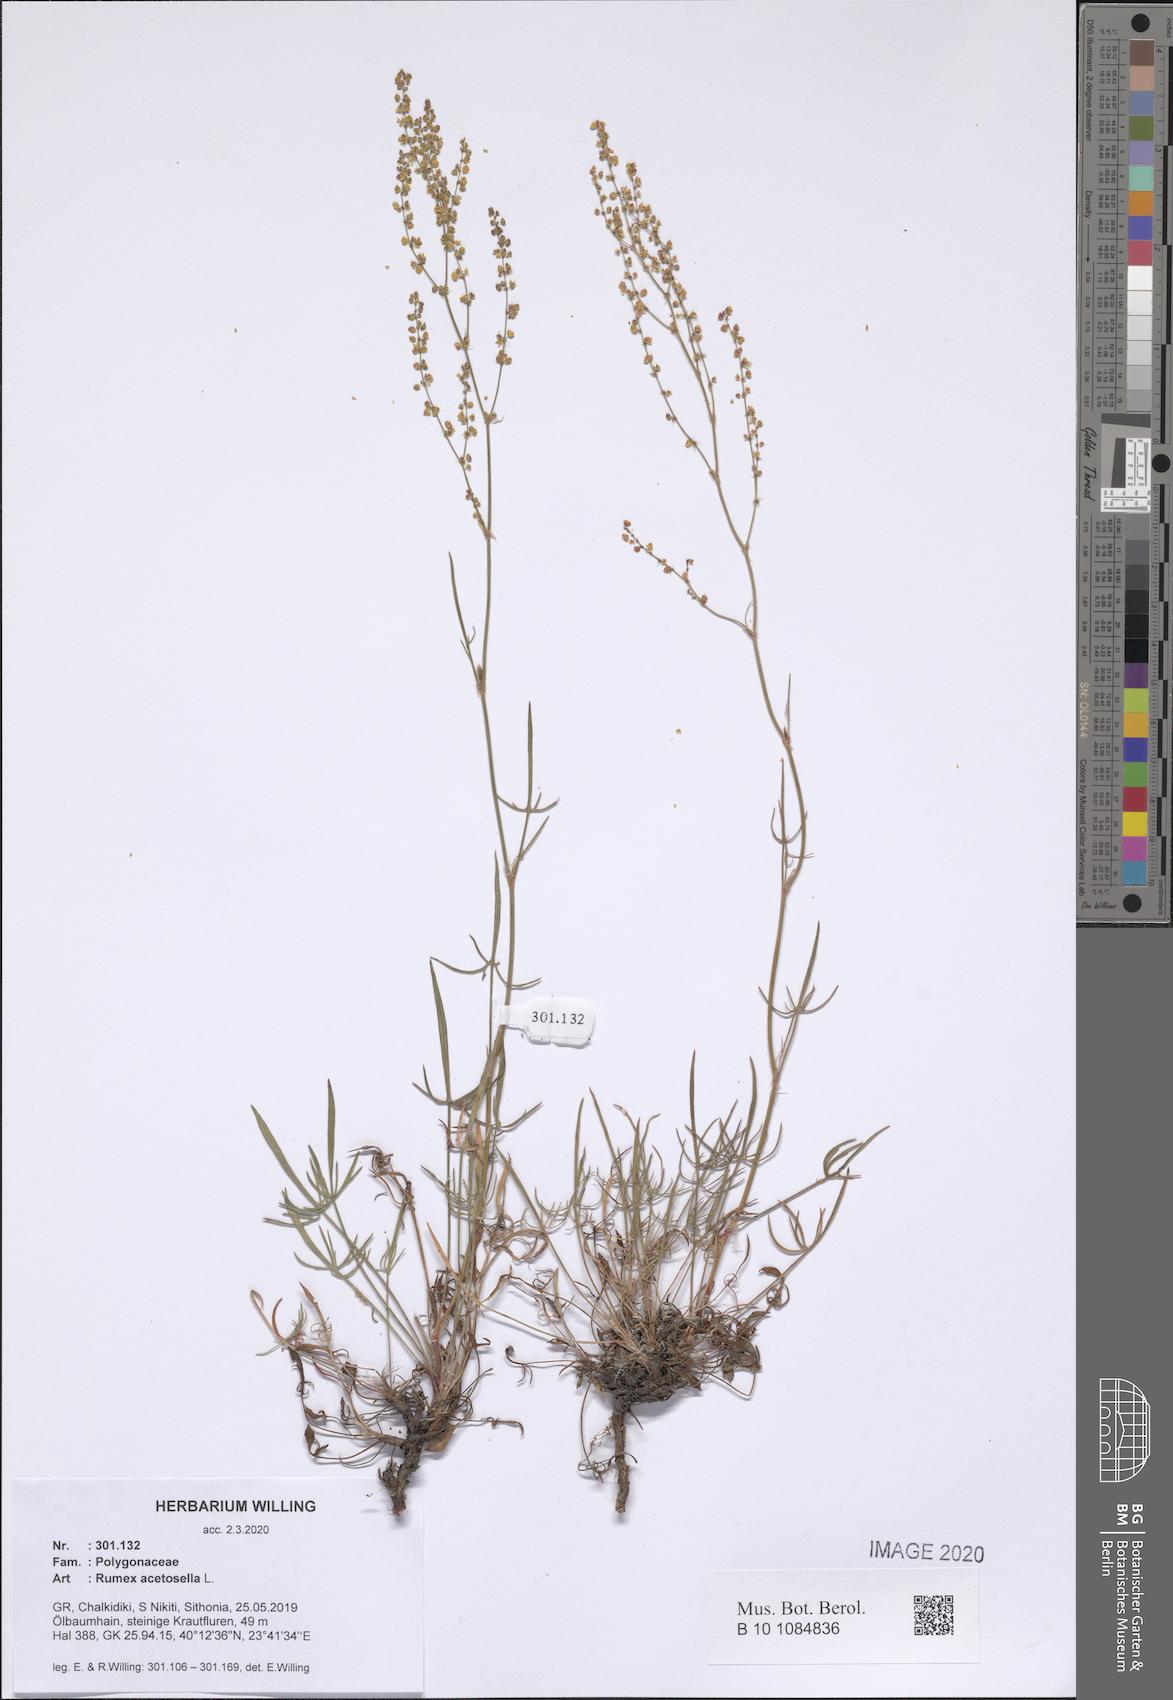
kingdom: Plantae
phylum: Tracheophyta
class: Magnoliopsida
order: Caryophyllales
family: Polygonaceae
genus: Rumex
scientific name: Rumex acetosella
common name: Common sheep sorrel
